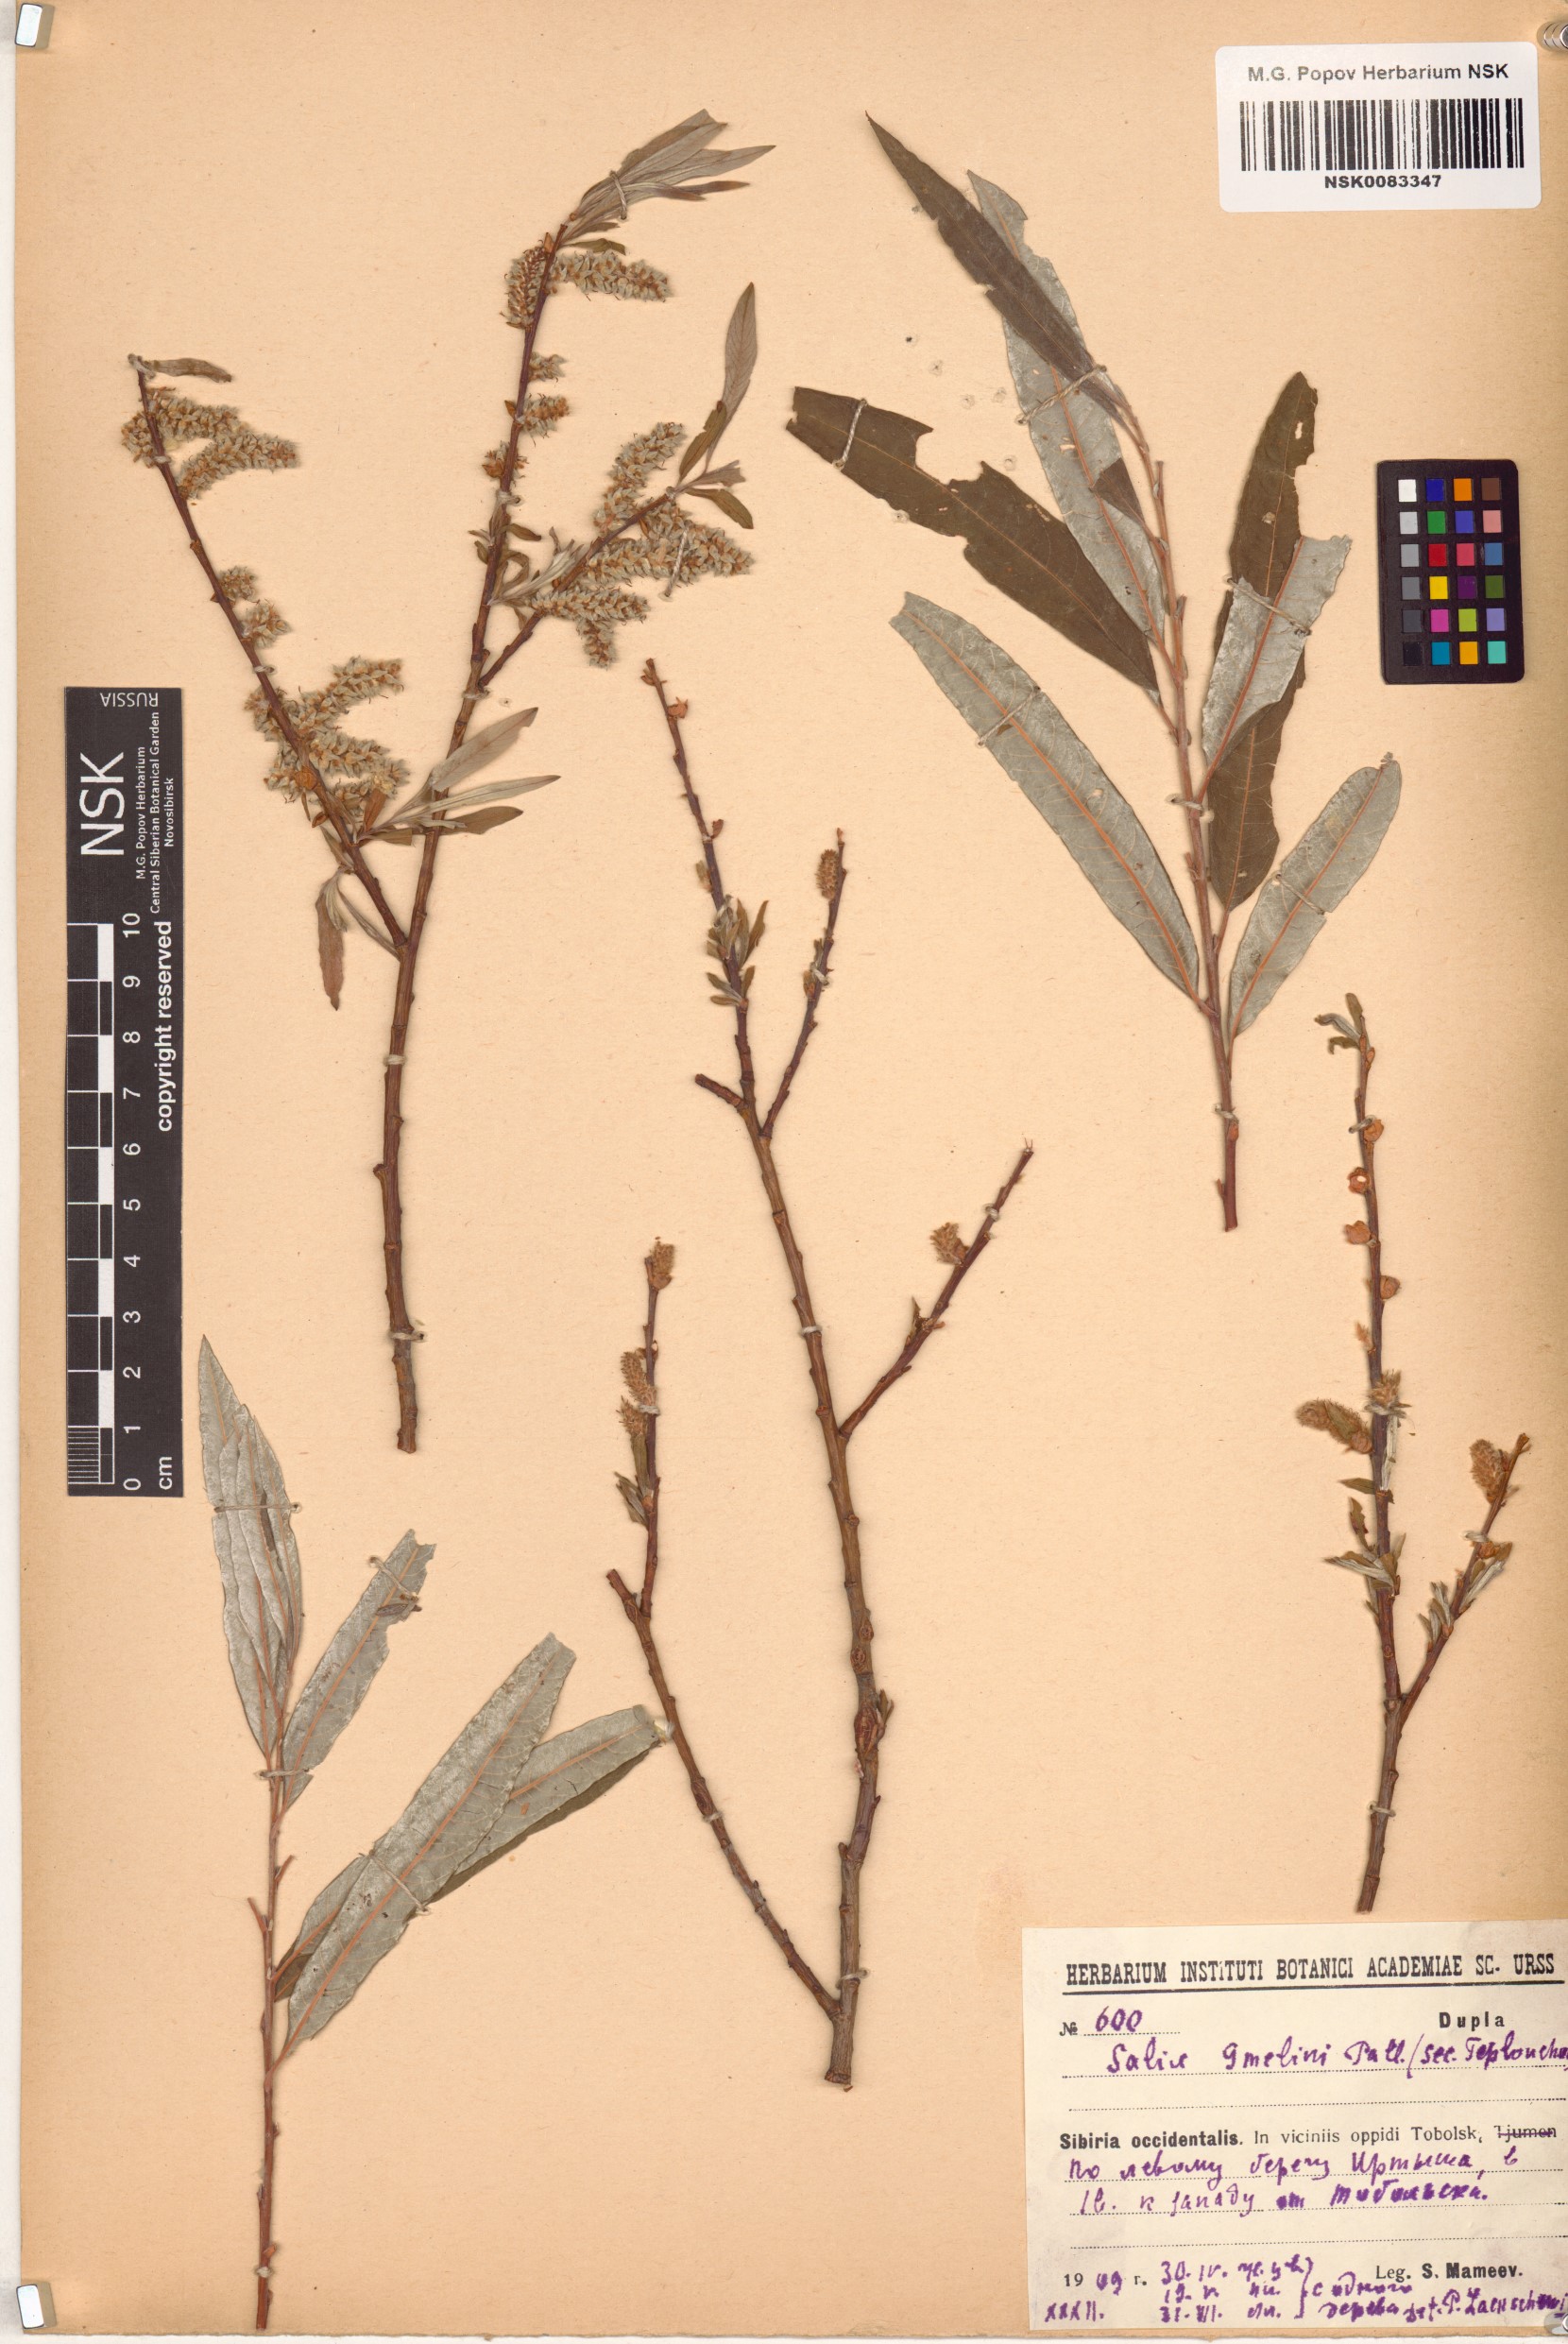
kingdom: Plantae
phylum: Tracheophyta
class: Magnoliopsida
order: Malpighiales
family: Salicaceae
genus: Salix
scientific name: Salix gmelinii
